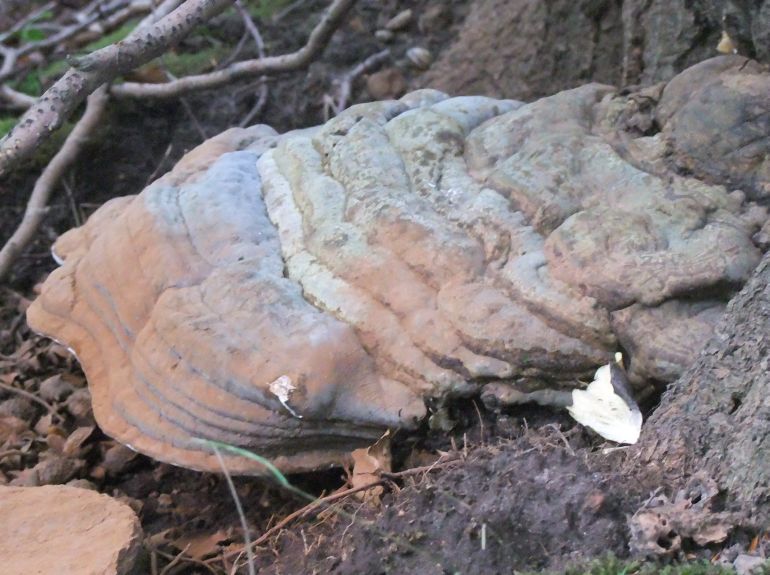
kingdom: Fungi
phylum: Basidiomycota
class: Agaricomycetes
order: Polyporales
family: Polyporaceae
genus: Ganoderma
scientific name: Ganoderma pfeifferi
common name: kobberrød lakporesvamp
